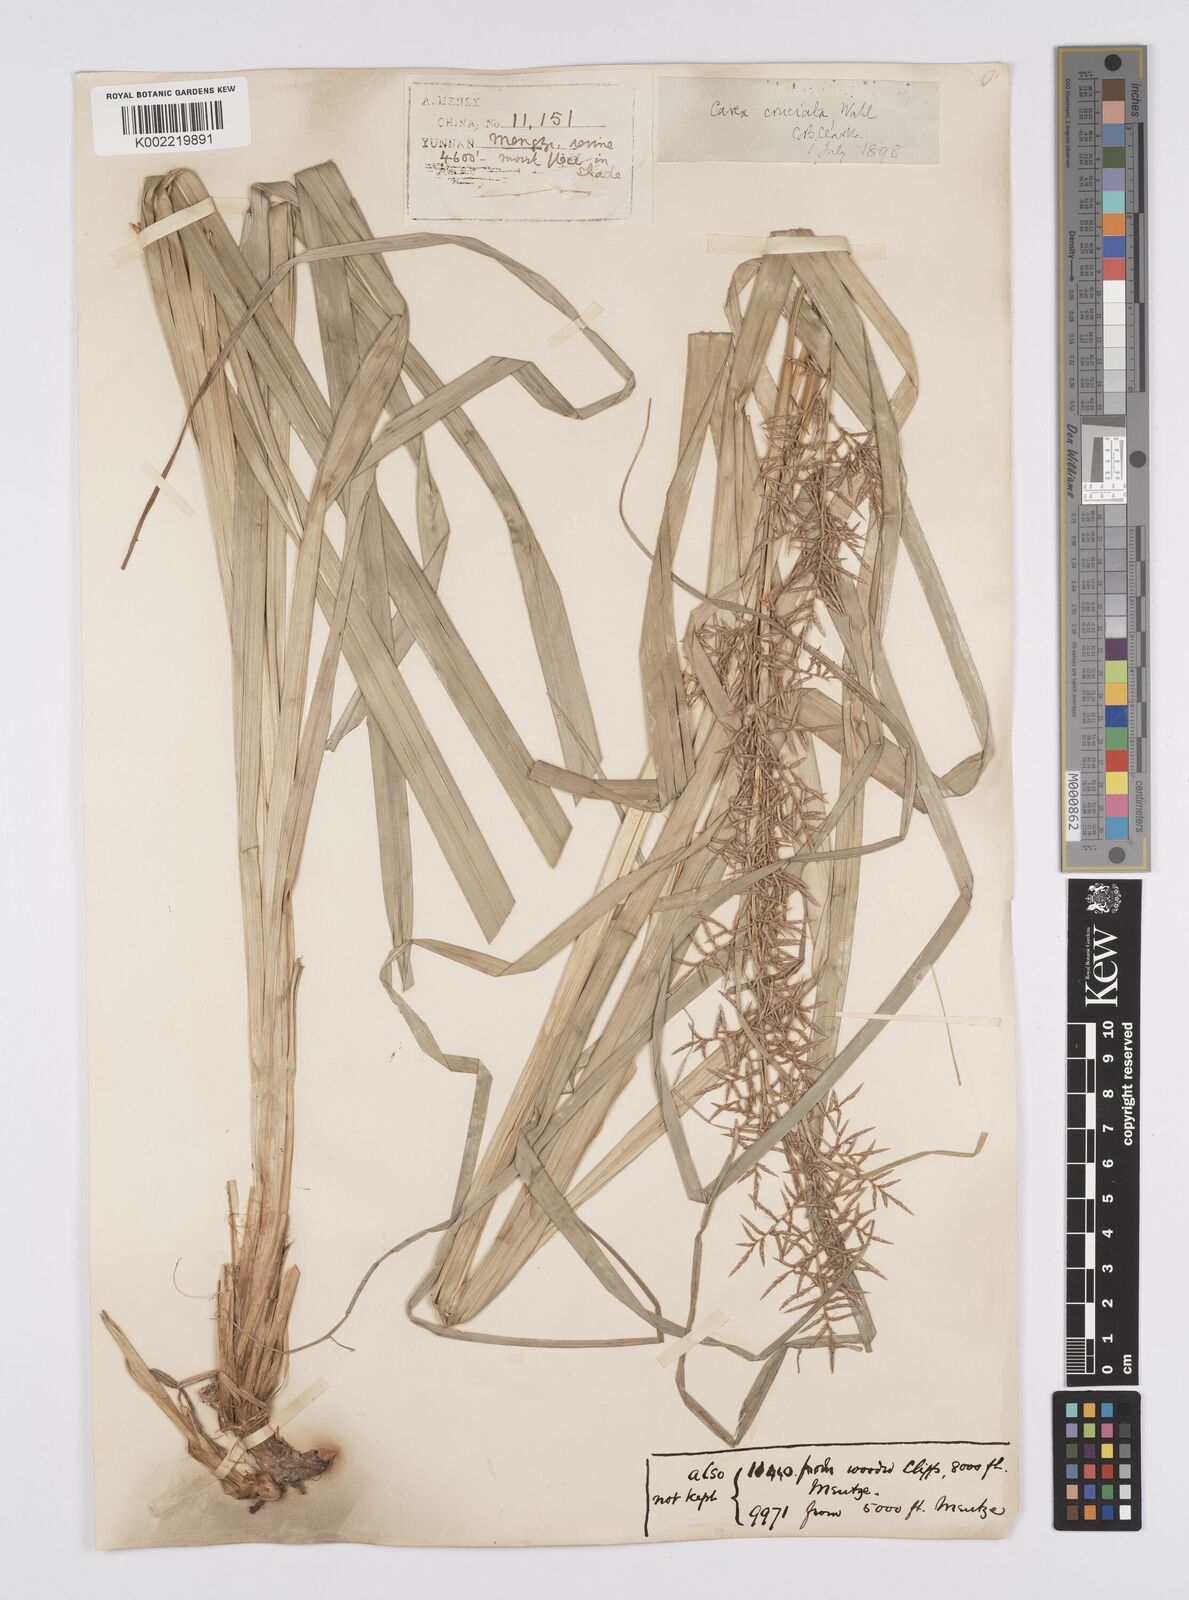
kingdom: Plantae
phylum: Tracheophyta
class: Liliopsida
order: Poales
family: Cyperaceae
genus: Carex
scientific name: Carex cruciata
